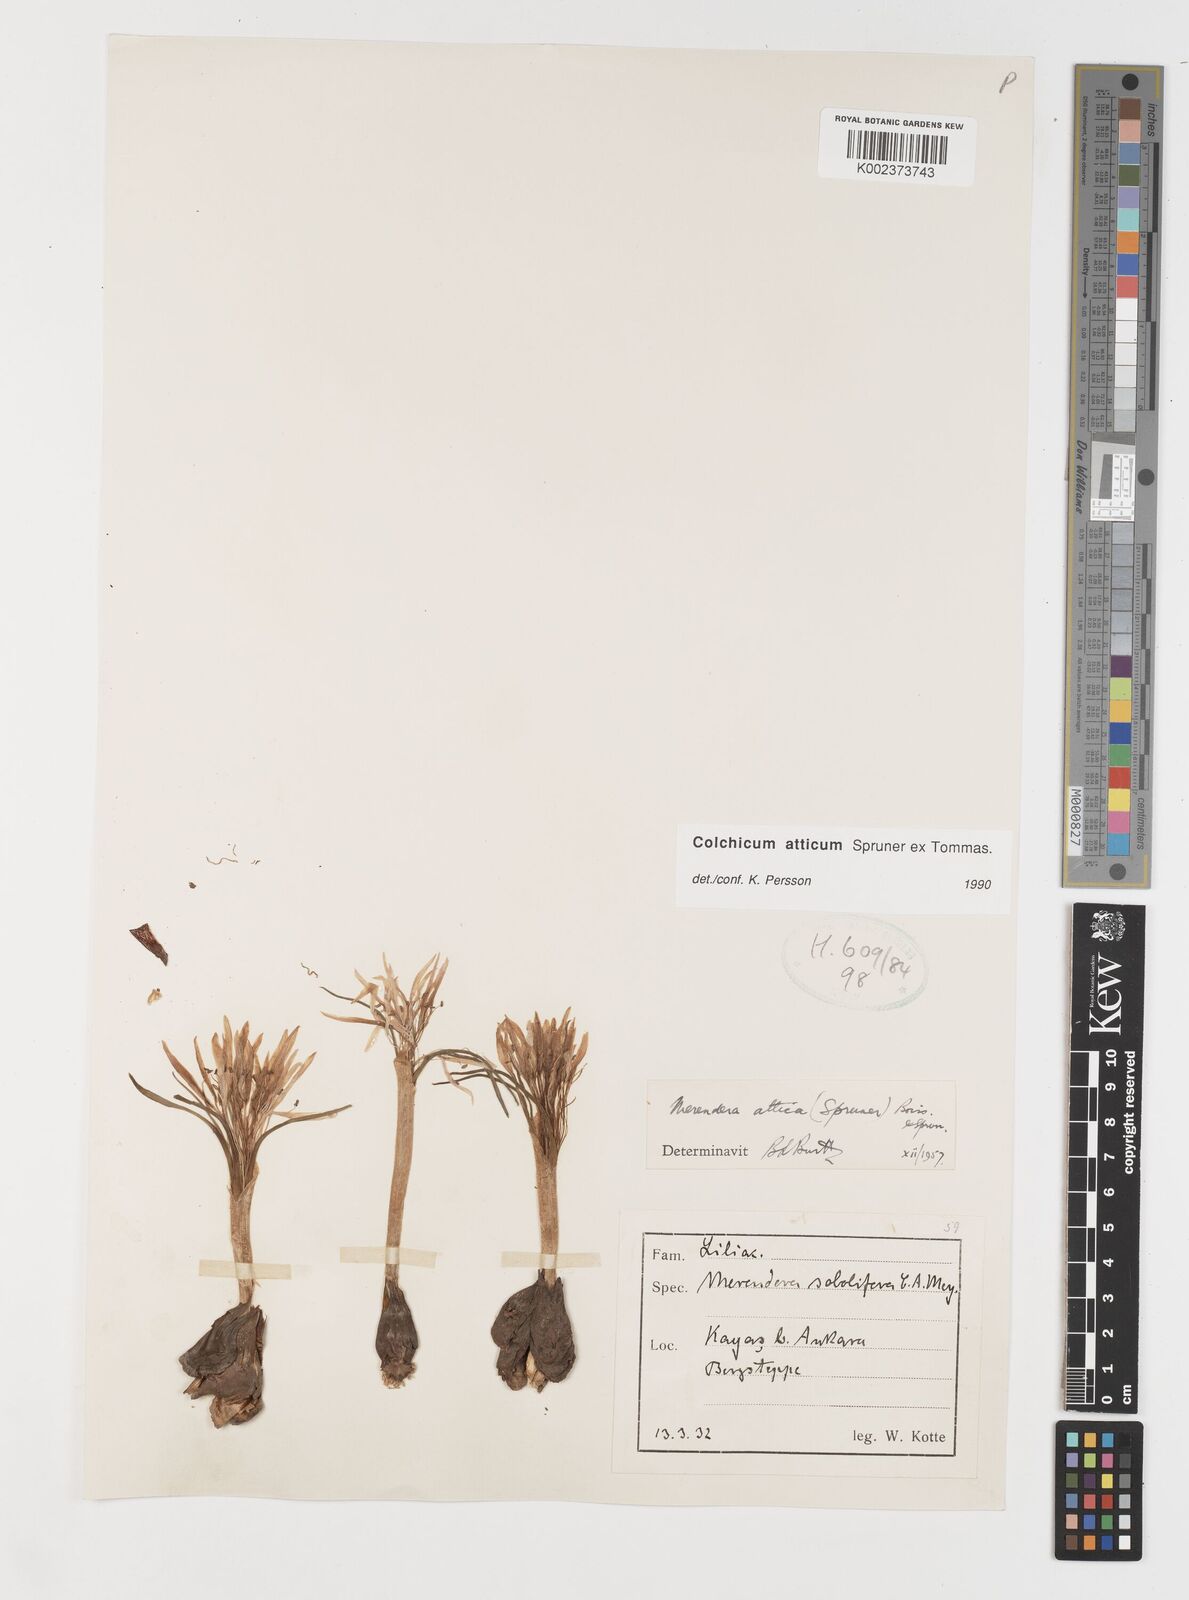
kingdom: Plantae
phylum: Tracheophyta
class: Liliopsida
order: Liliales
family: Colchicaceae
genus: Colchicum
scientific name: Colchicum atticum
